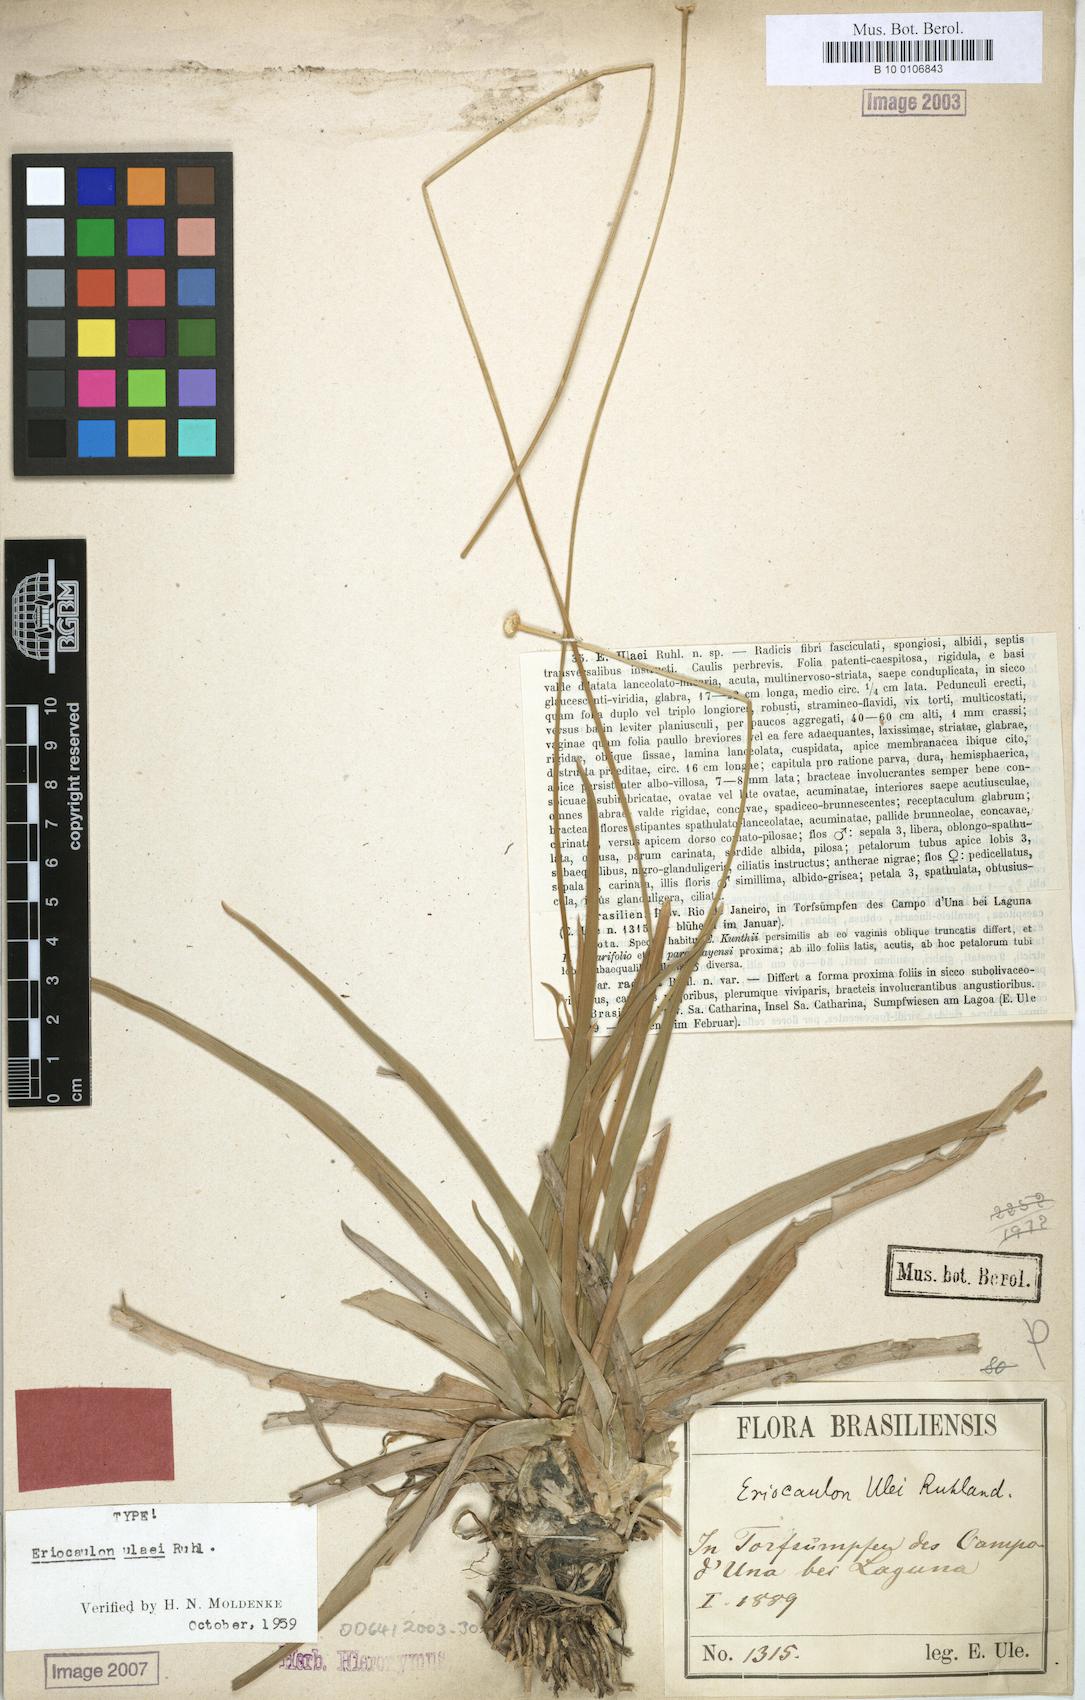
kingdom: Plantae
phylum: Tracheophyta
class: Liliopsida
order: Poales
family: Eriocaulaceae
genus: Eriocaulon
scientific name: Eriocaulon ulaei
